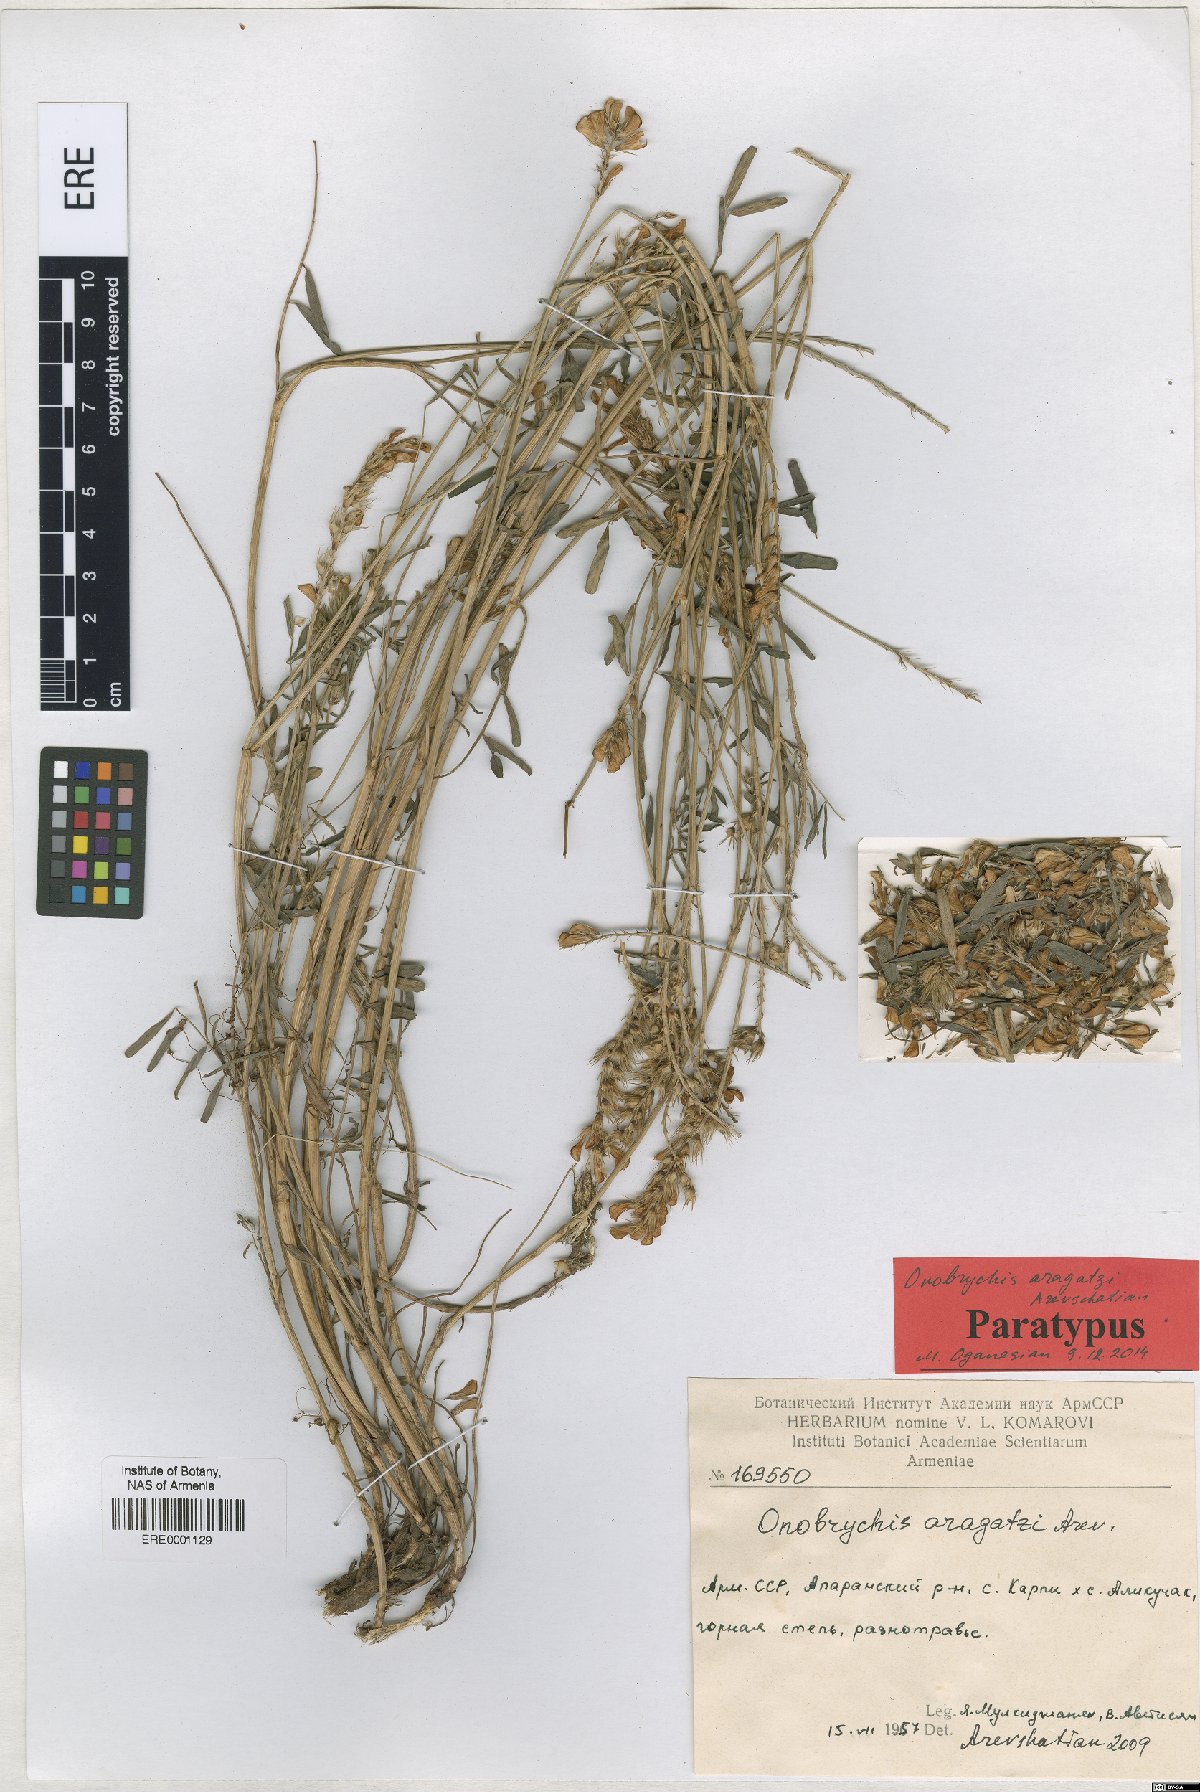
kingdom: Plantae
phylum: Tracheophyta
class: Magnoliopsida
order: Fabales
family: Fabaceae
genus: Onobrychis
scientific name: Onobrychis aragatzi
